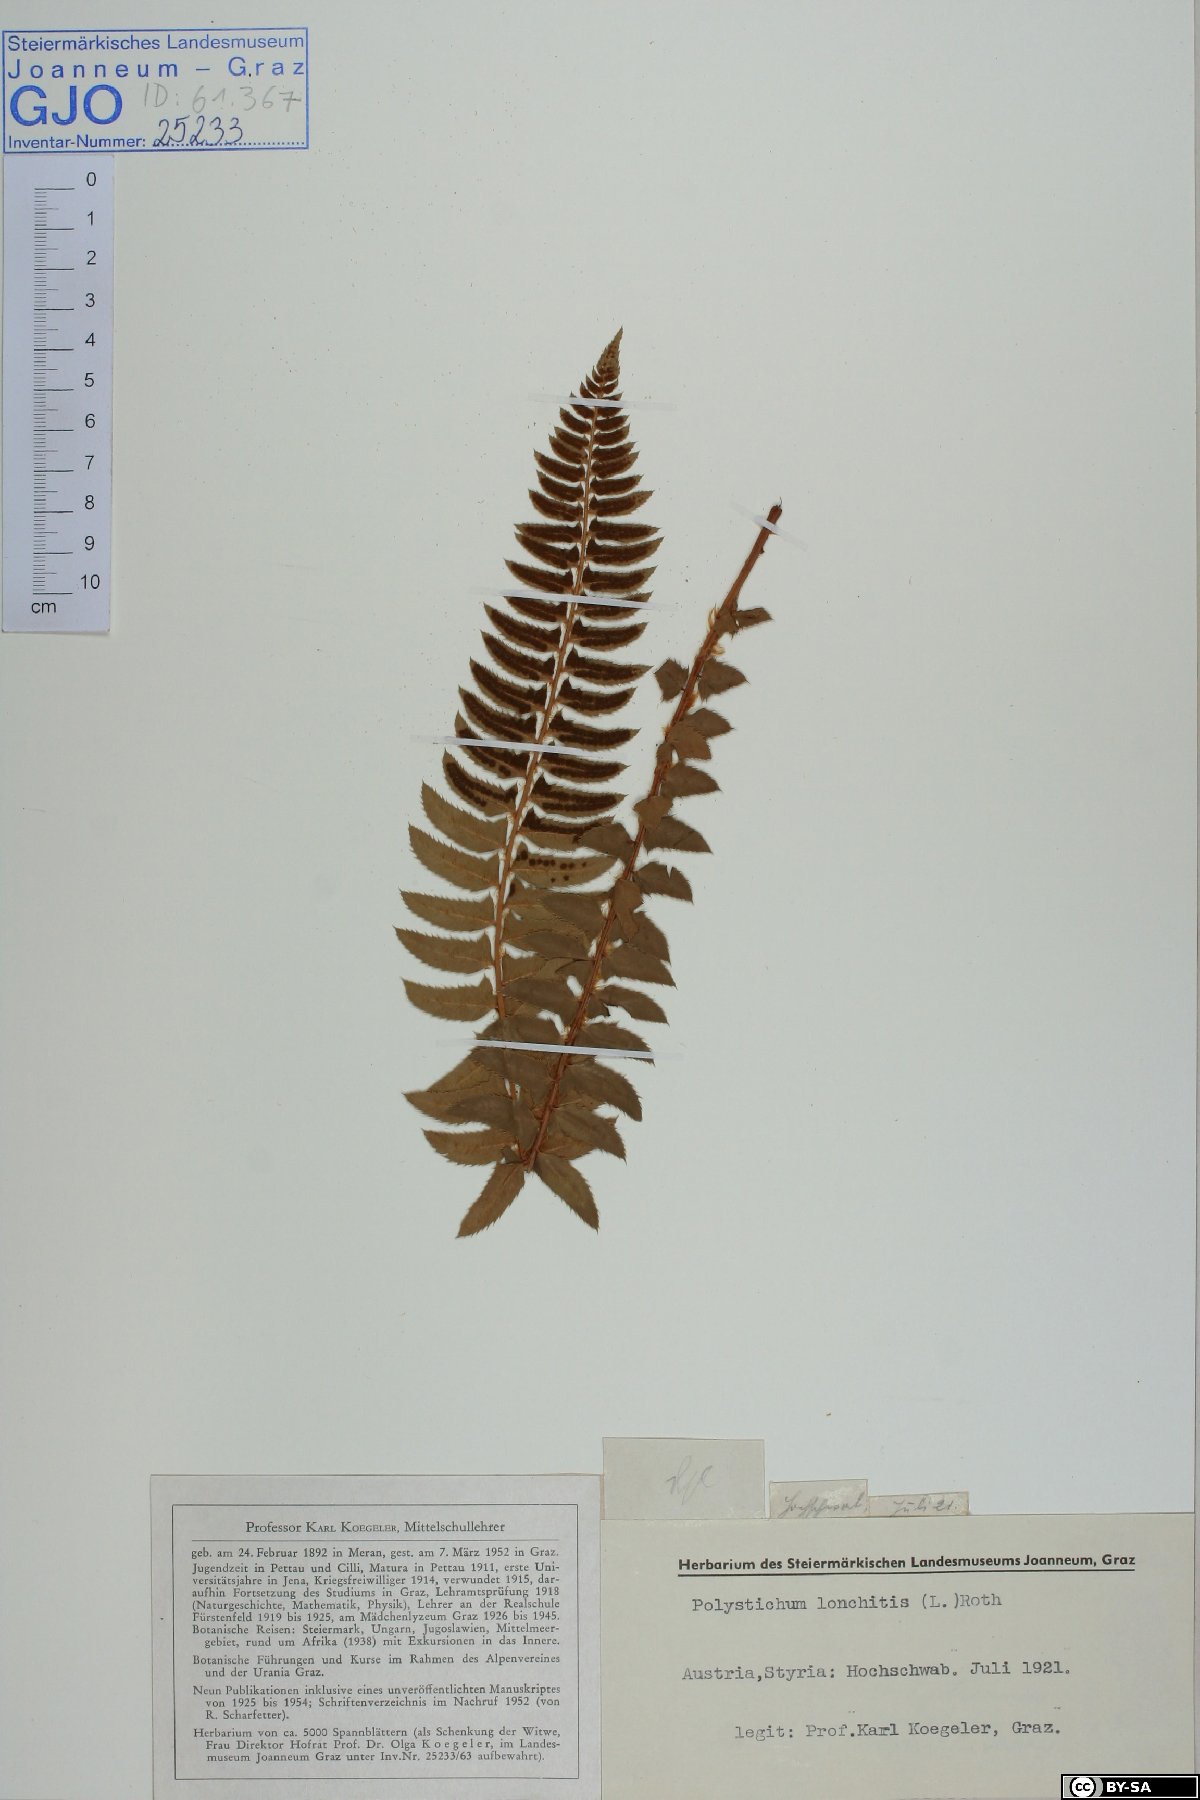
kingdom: Plantae
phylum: Tracheophyta
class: Polypodiopsida
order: Polypodiales
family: Dryopteridaceae
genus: Polystichum
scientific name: Polystichum lonchitis
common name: Holly fern
